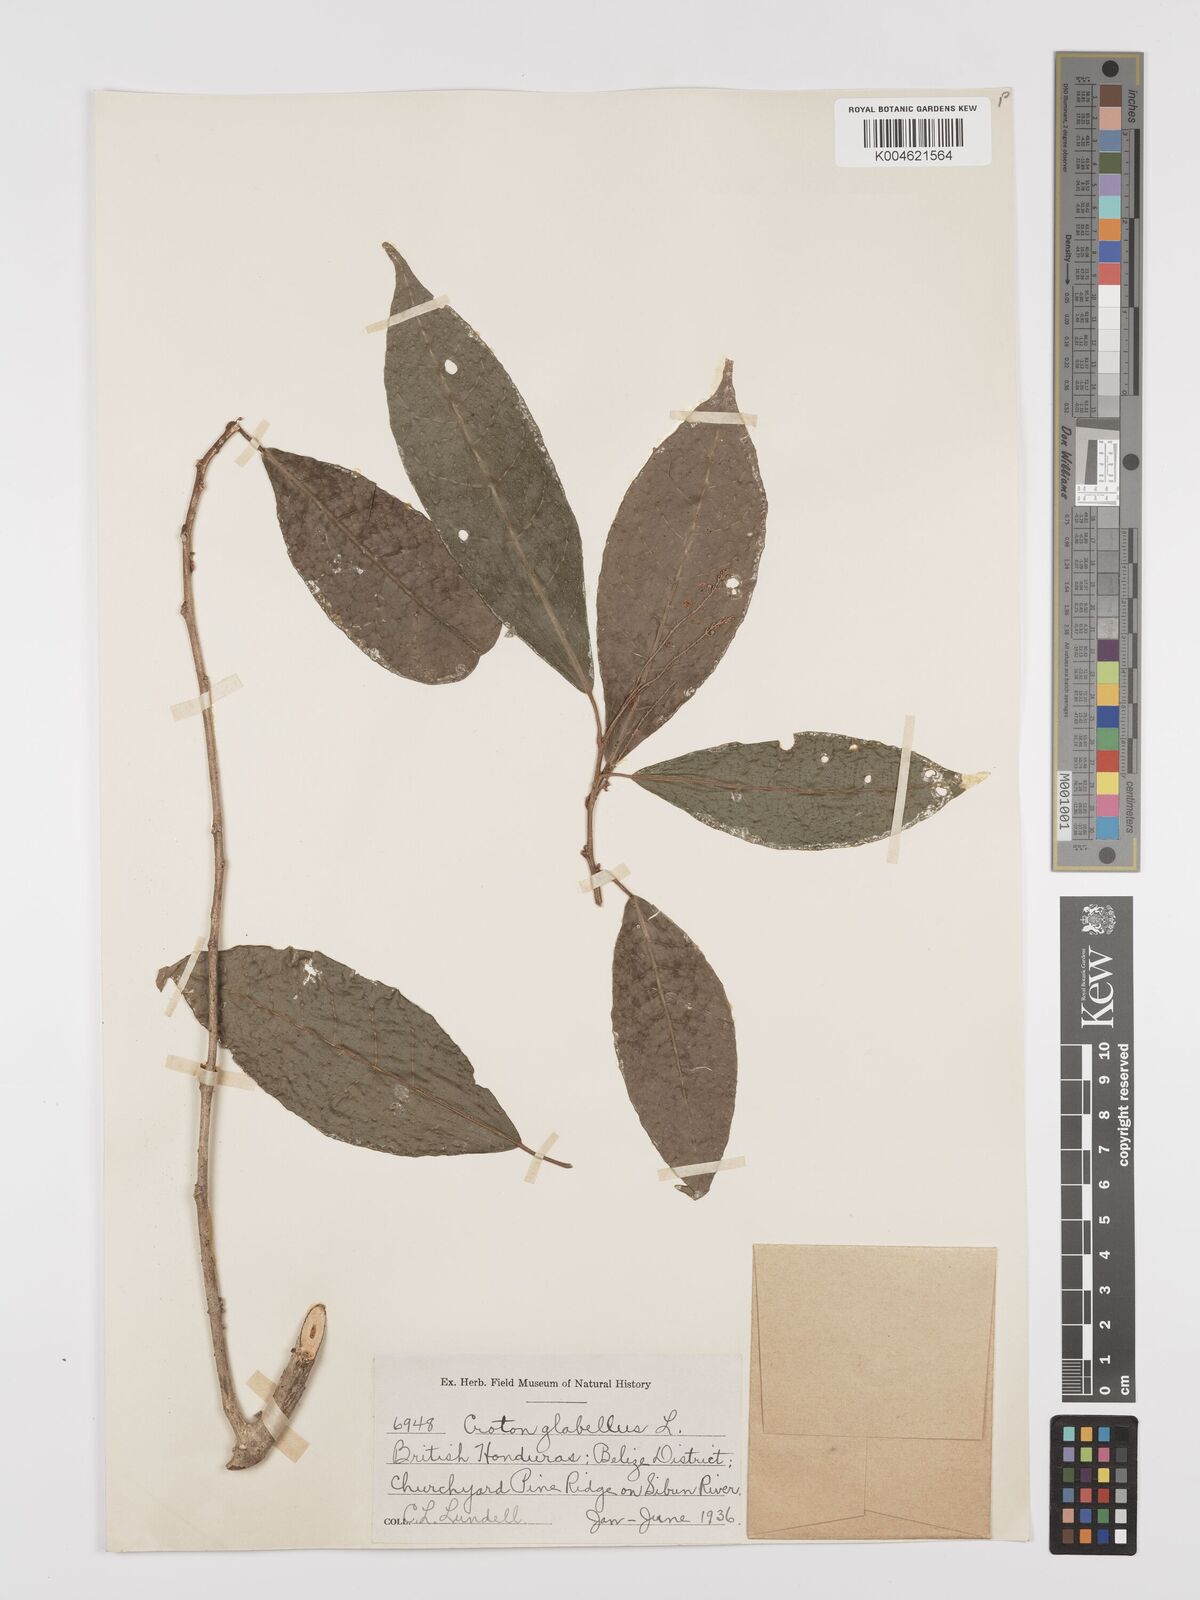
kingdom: Plantae
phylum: Tracheophyta
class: Magnoliopsida
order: Malpighiales
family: Euphorbiaceae
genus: Croton
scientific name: Croton glabellus
